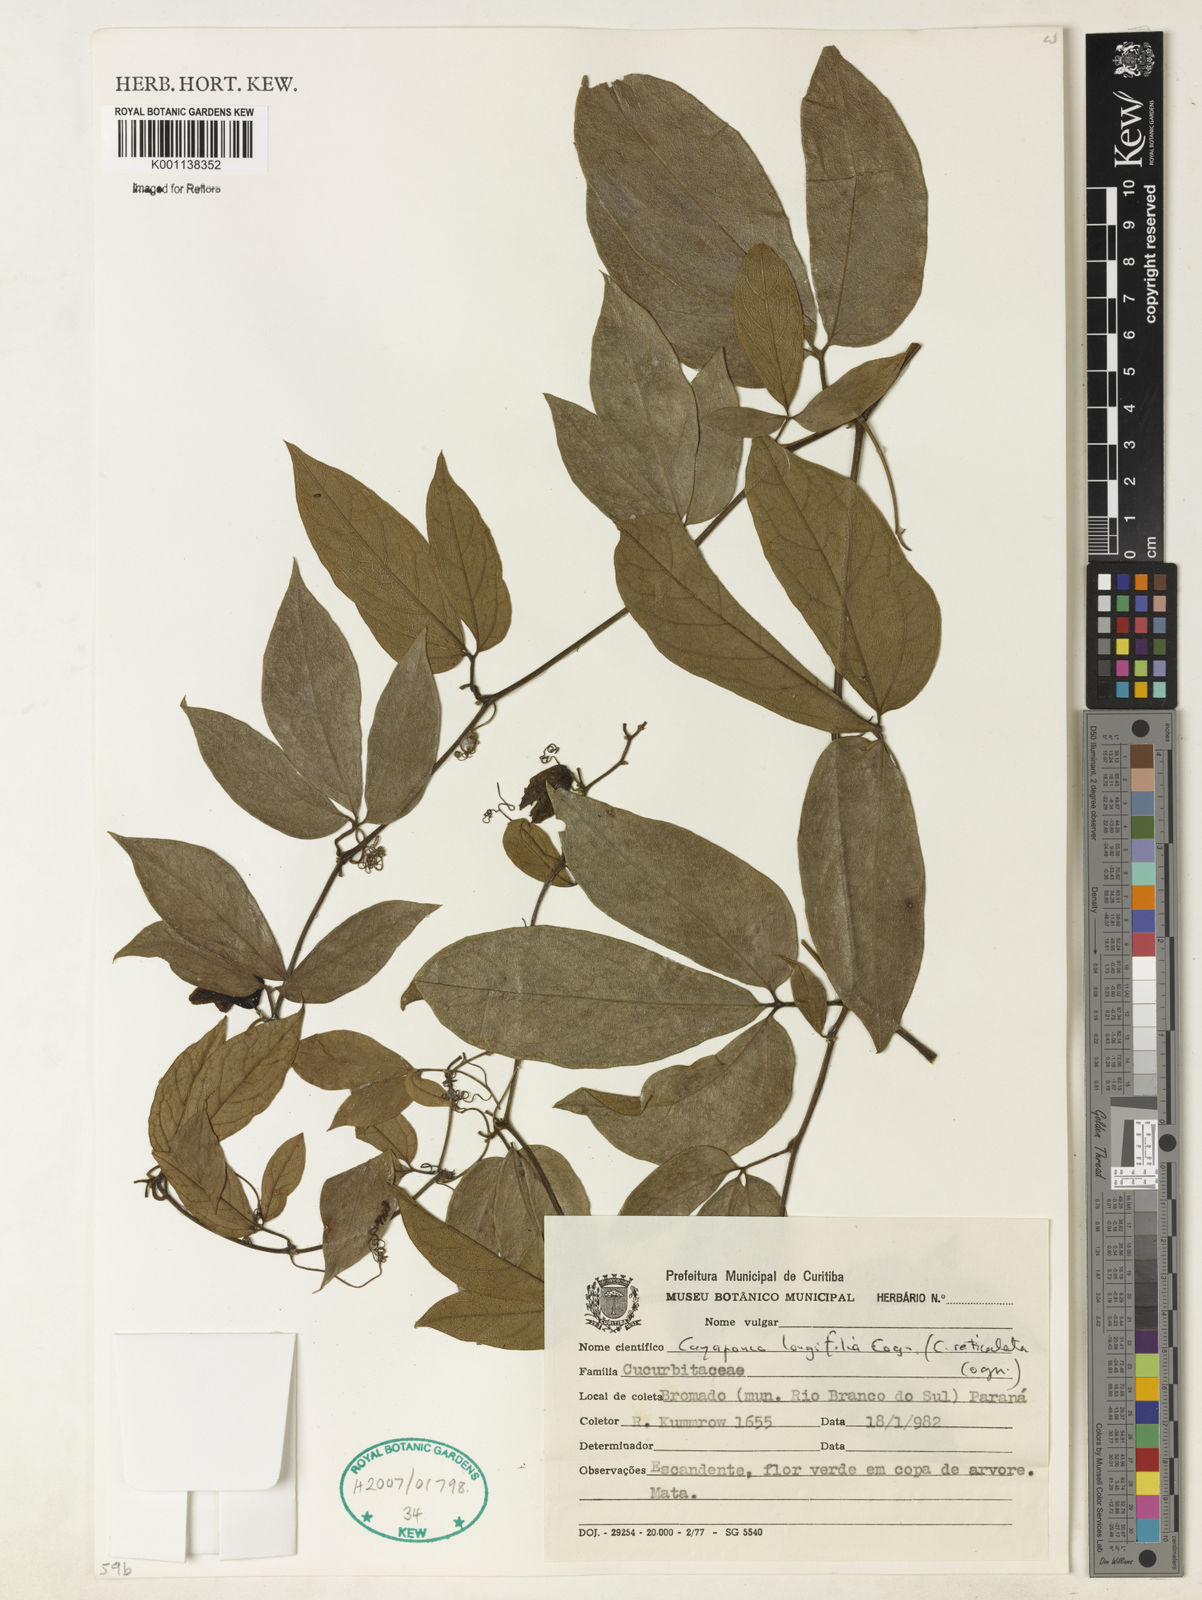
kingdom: Plantae
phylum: Tracheophyta
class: Magnoliopsida
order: Cucurbitales
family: Cucurbitaceae
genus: Cayaponia
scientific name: Cayaponia longifolia
